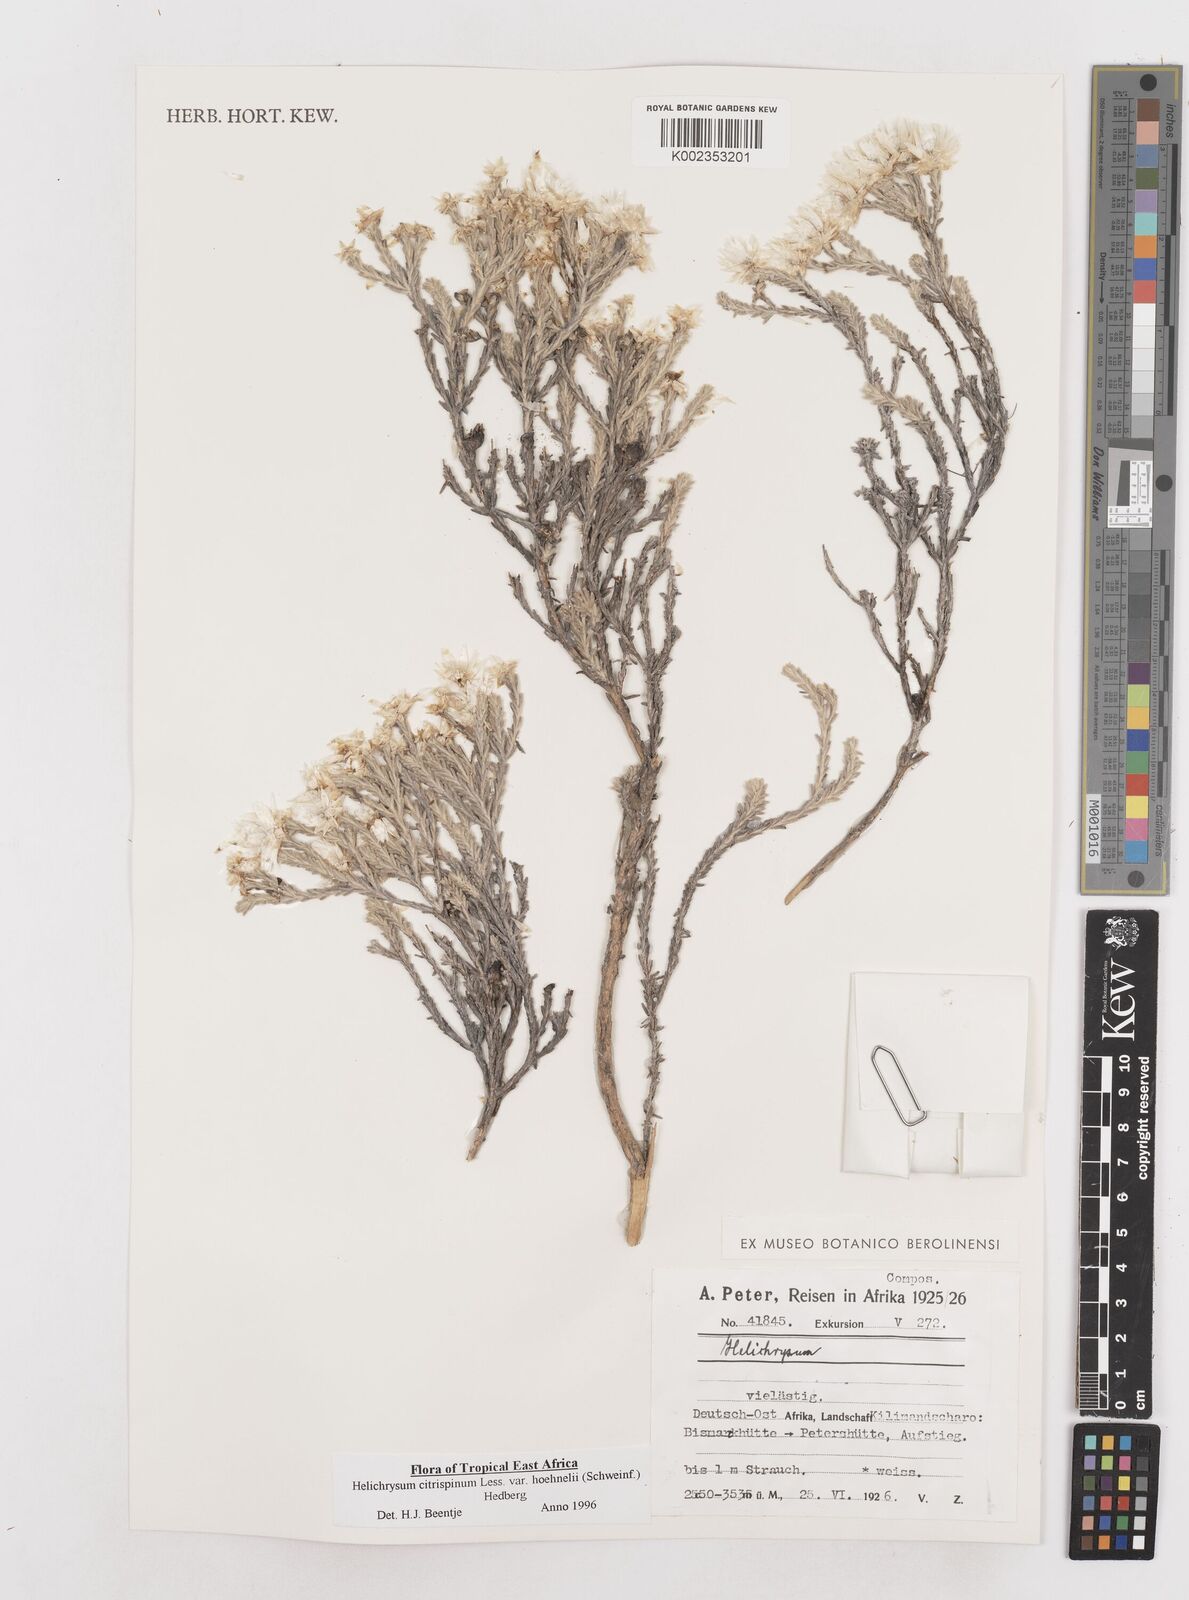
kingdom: Plantae
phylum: Tracheophyta
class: Magnoliopsida
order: Asterales
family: Asteraceae
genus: Helichrysum
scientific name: Helichrysum citrispinum
